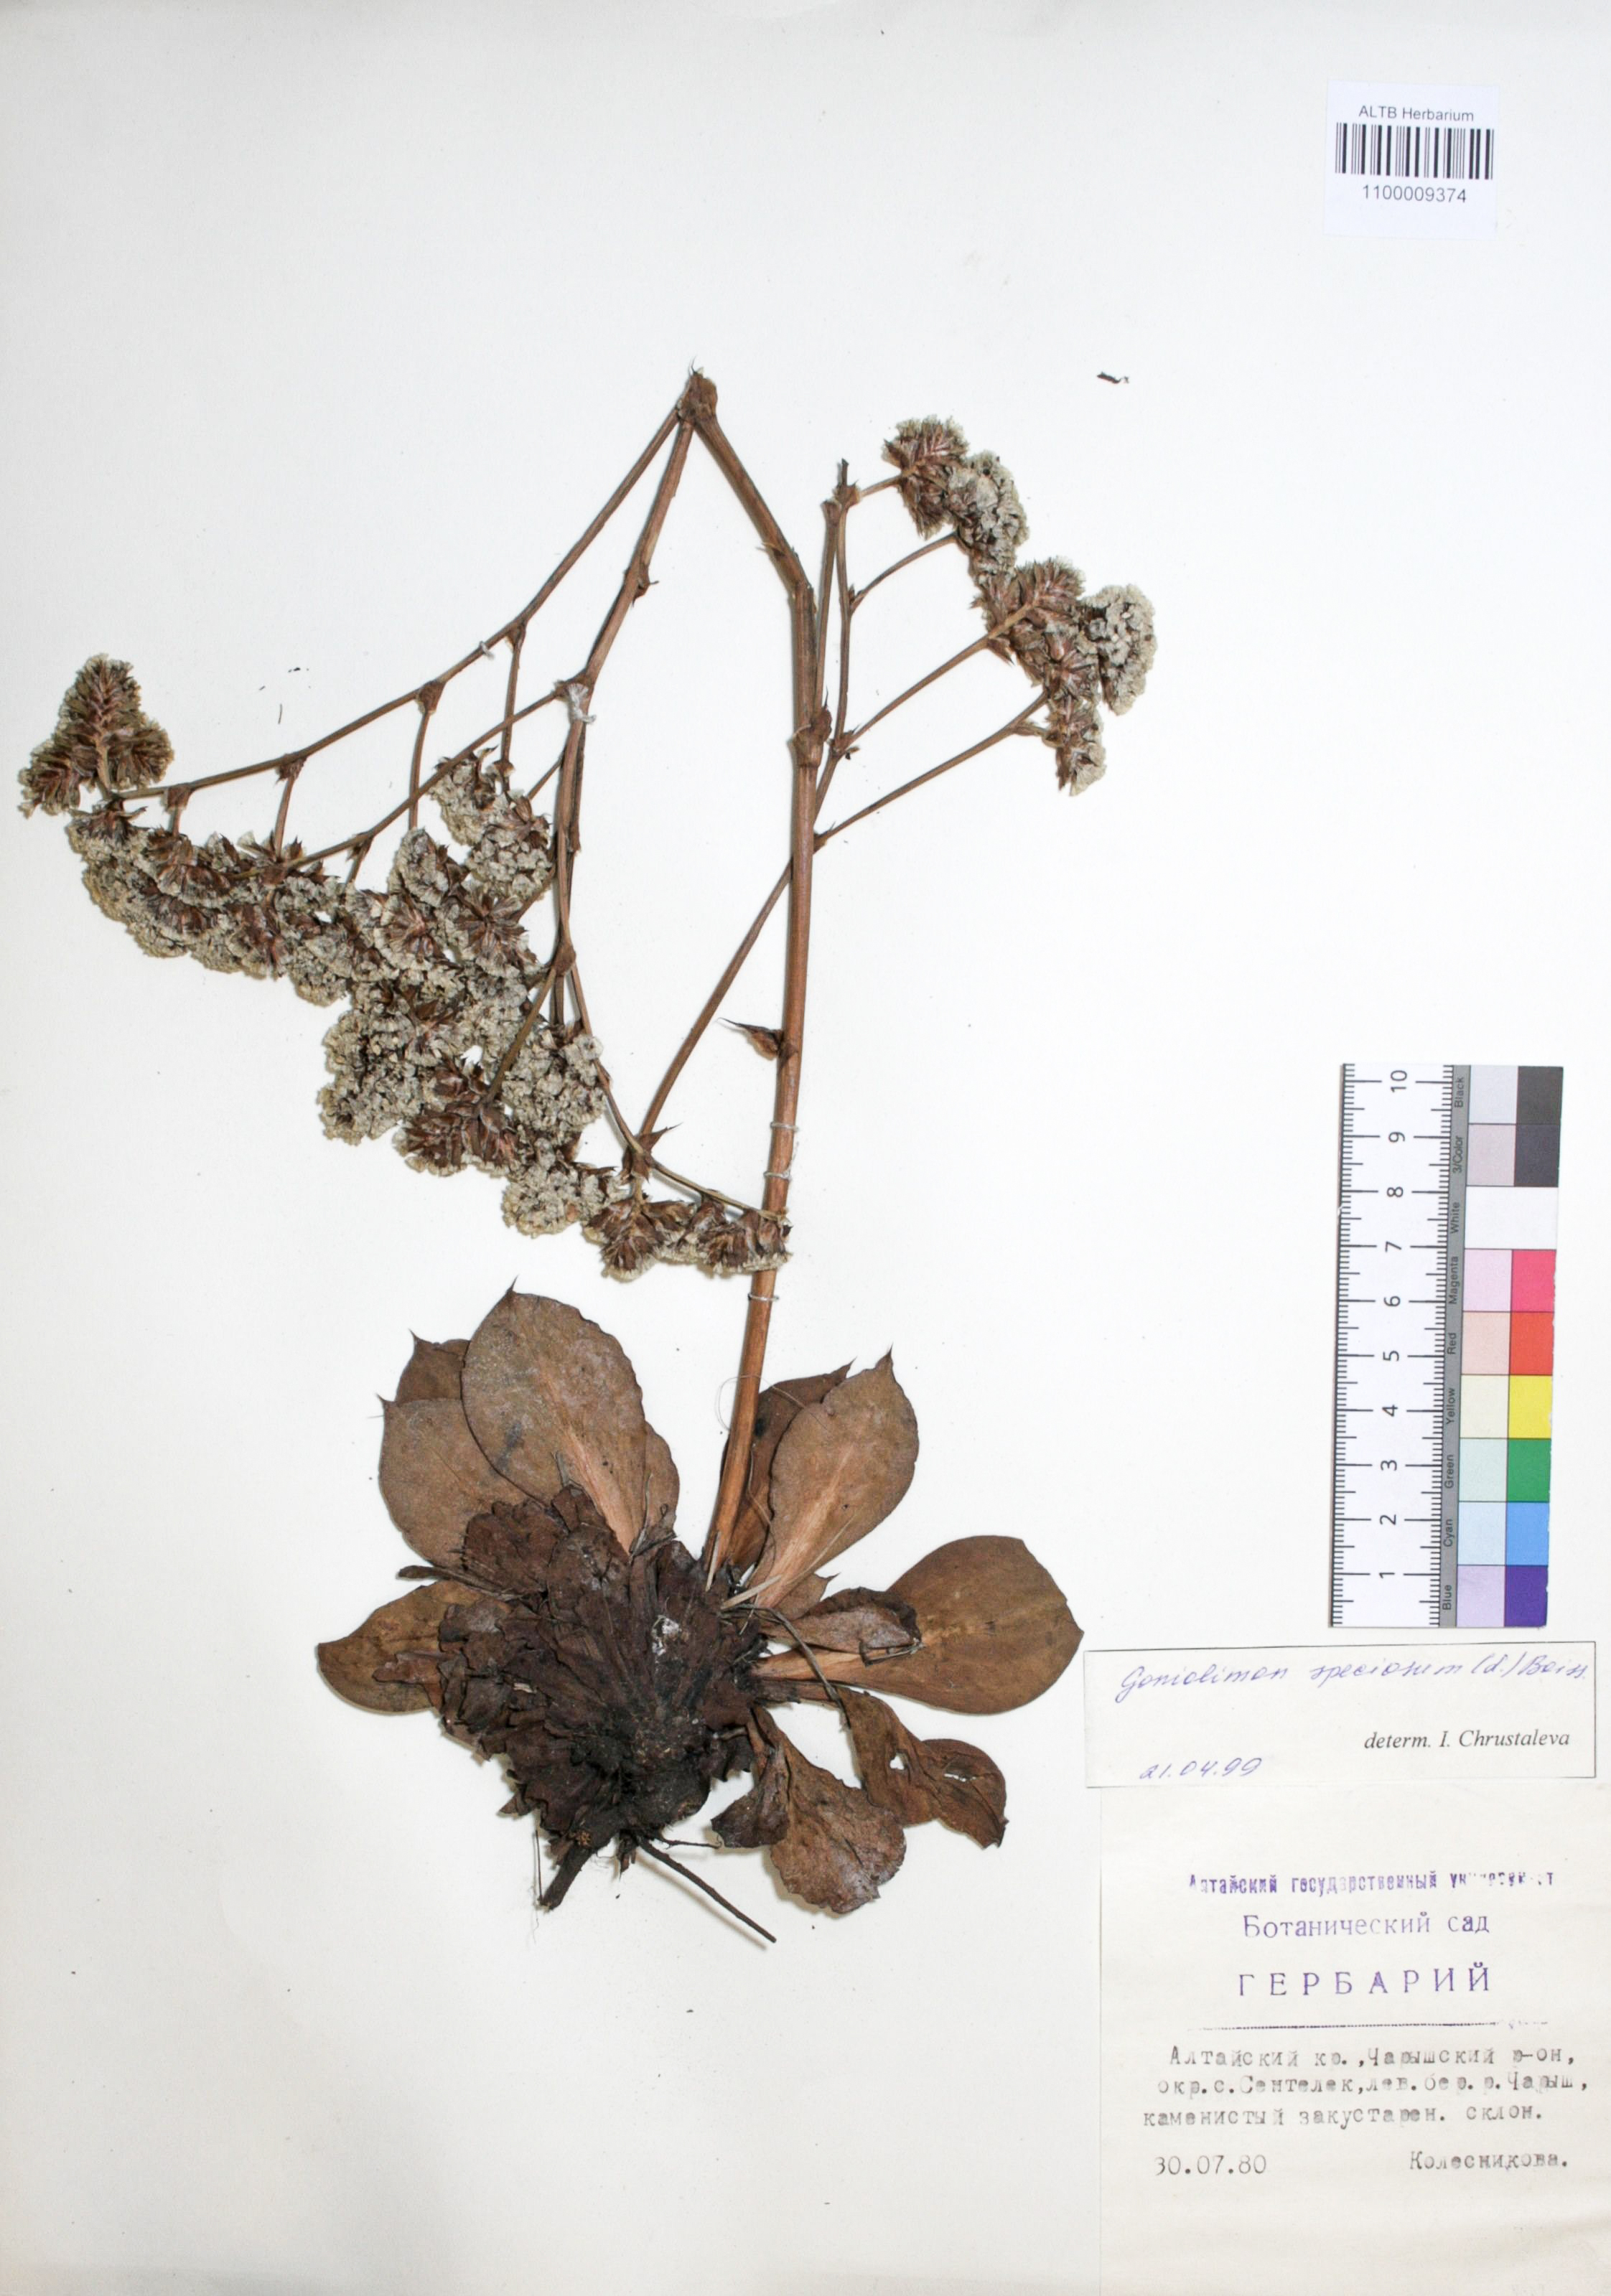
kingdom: Plantae
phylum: Tracheophyta
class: Magnoliopsida
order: Caryophyllales
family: Plumbaginaceae
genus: Goniolimon
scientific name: Goniolimon speciosum
